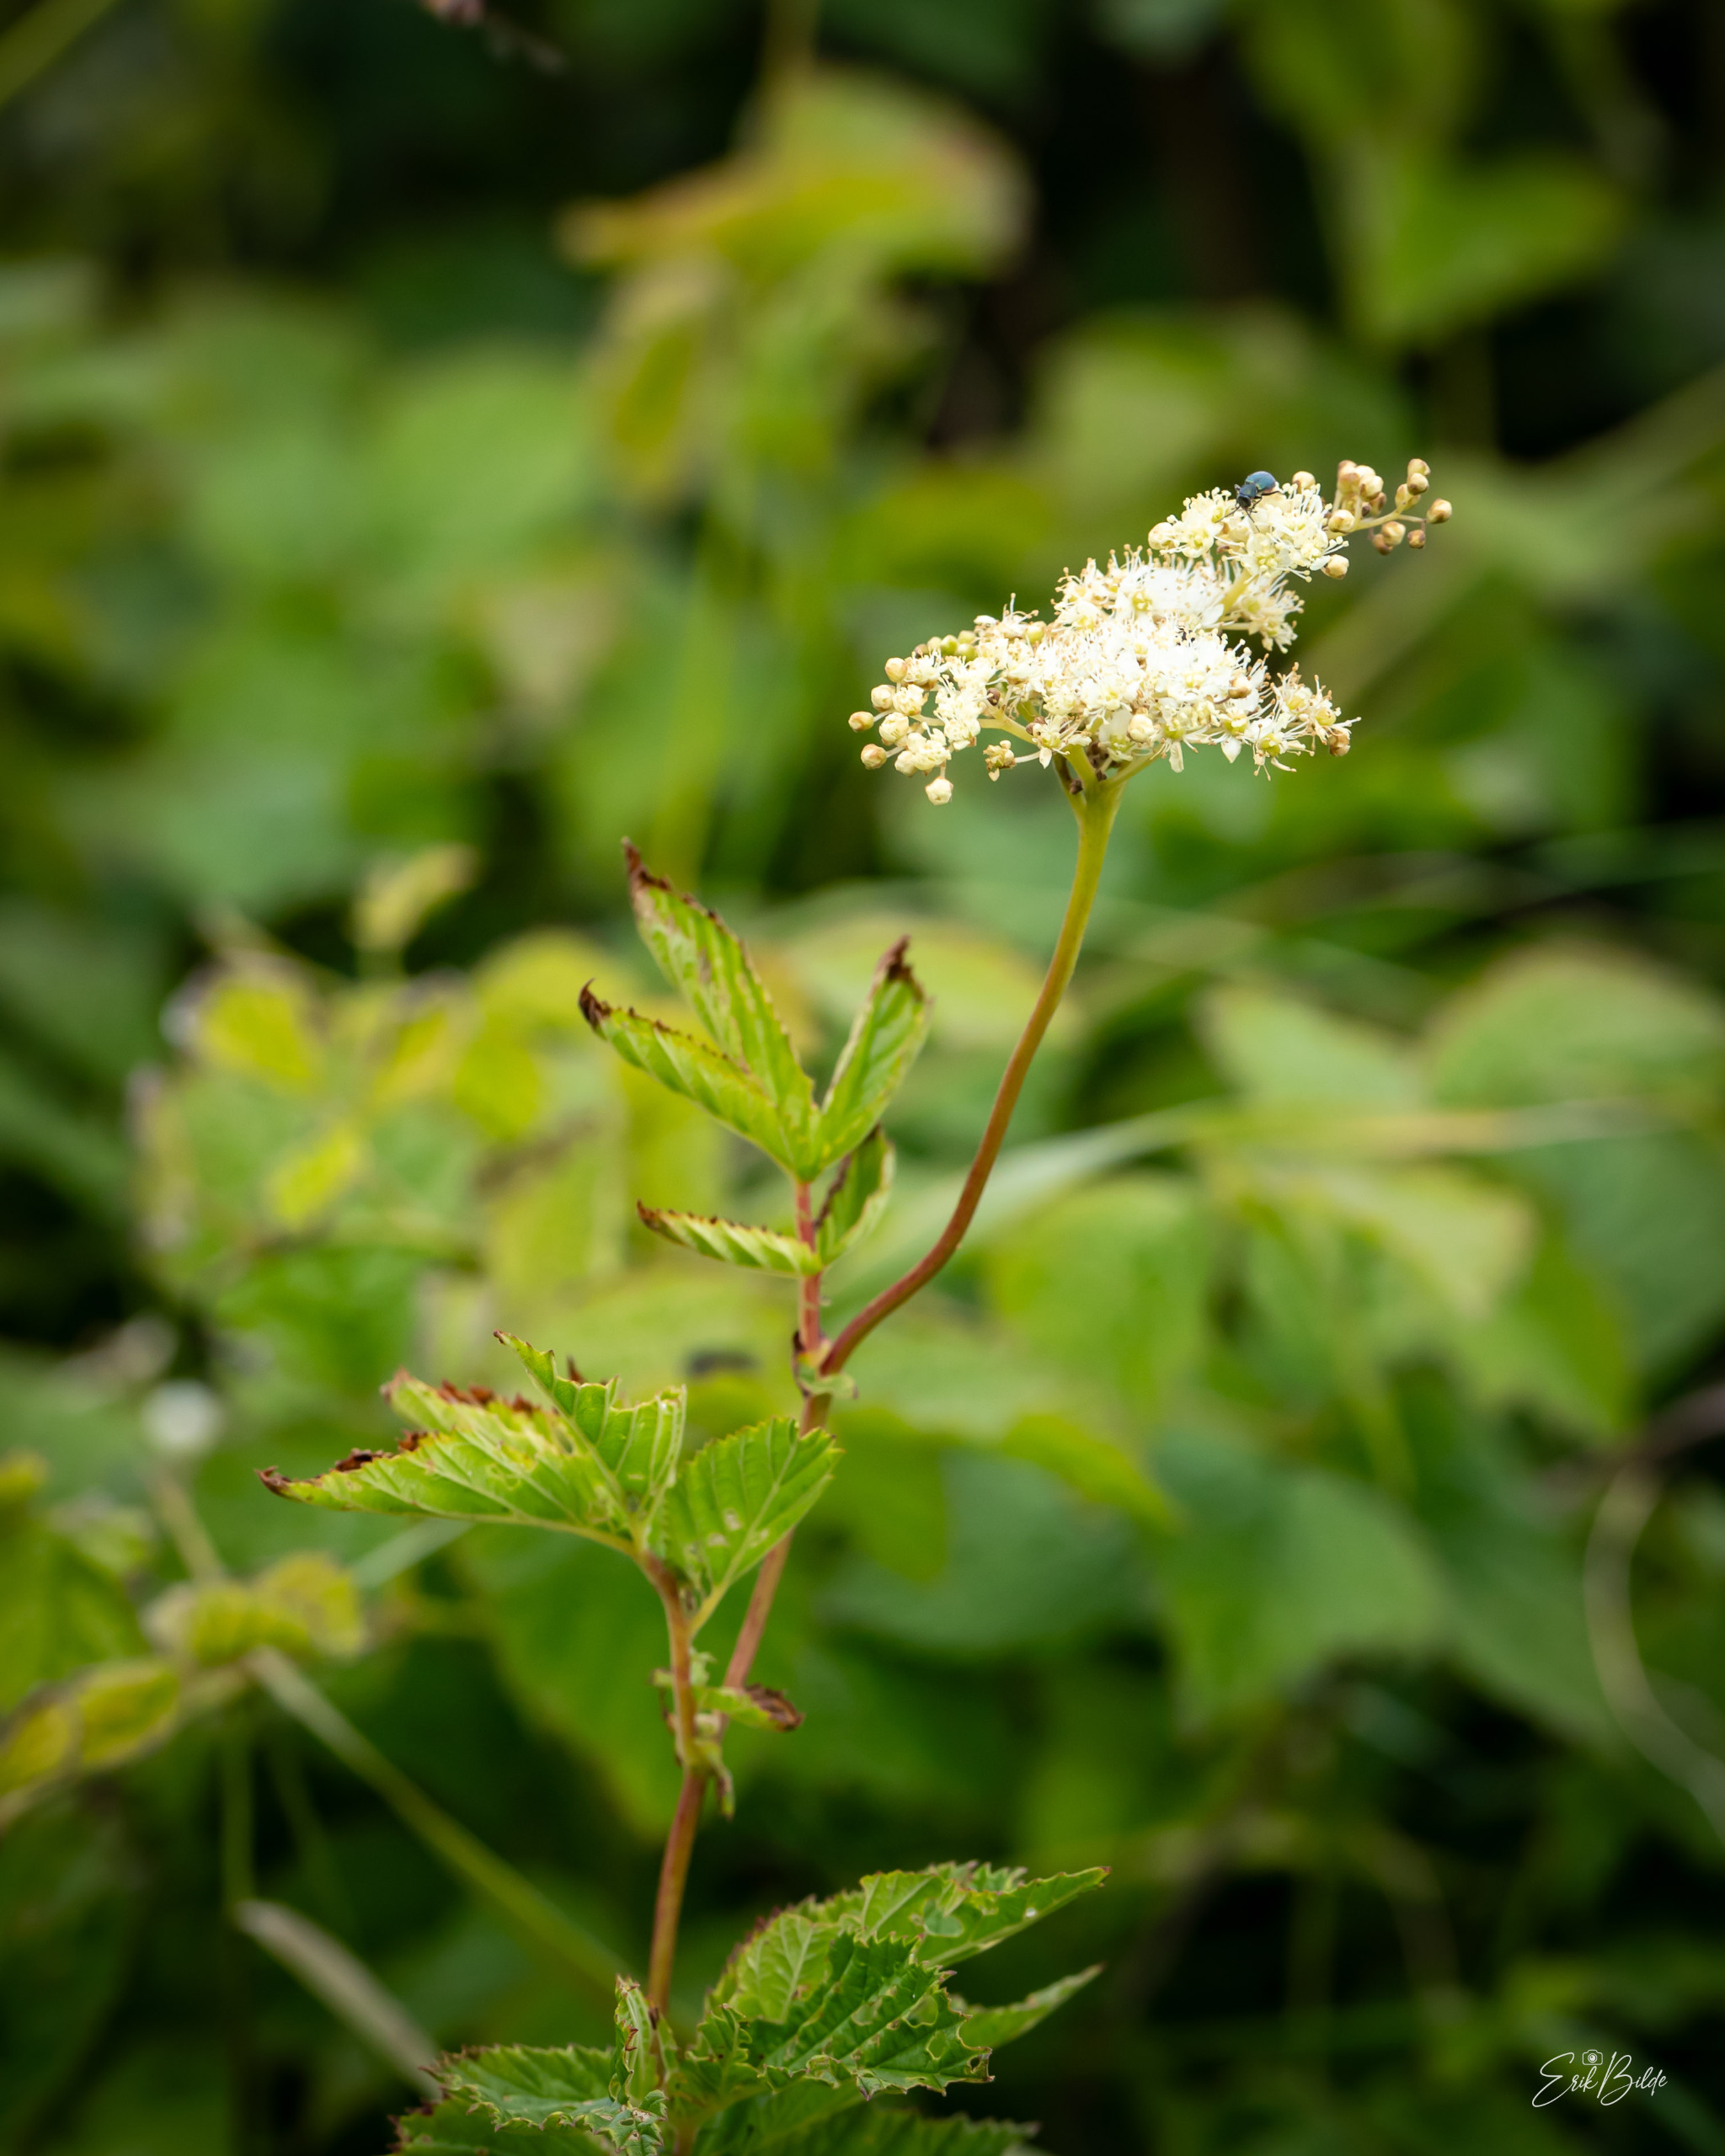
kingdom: Plantae
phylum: Tracheophyta
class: Magnoliopsida
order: Rosales
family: Rosaceae
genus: Filipendula
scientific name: Filipendula ulmaria
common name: Almindelig mjødurt
